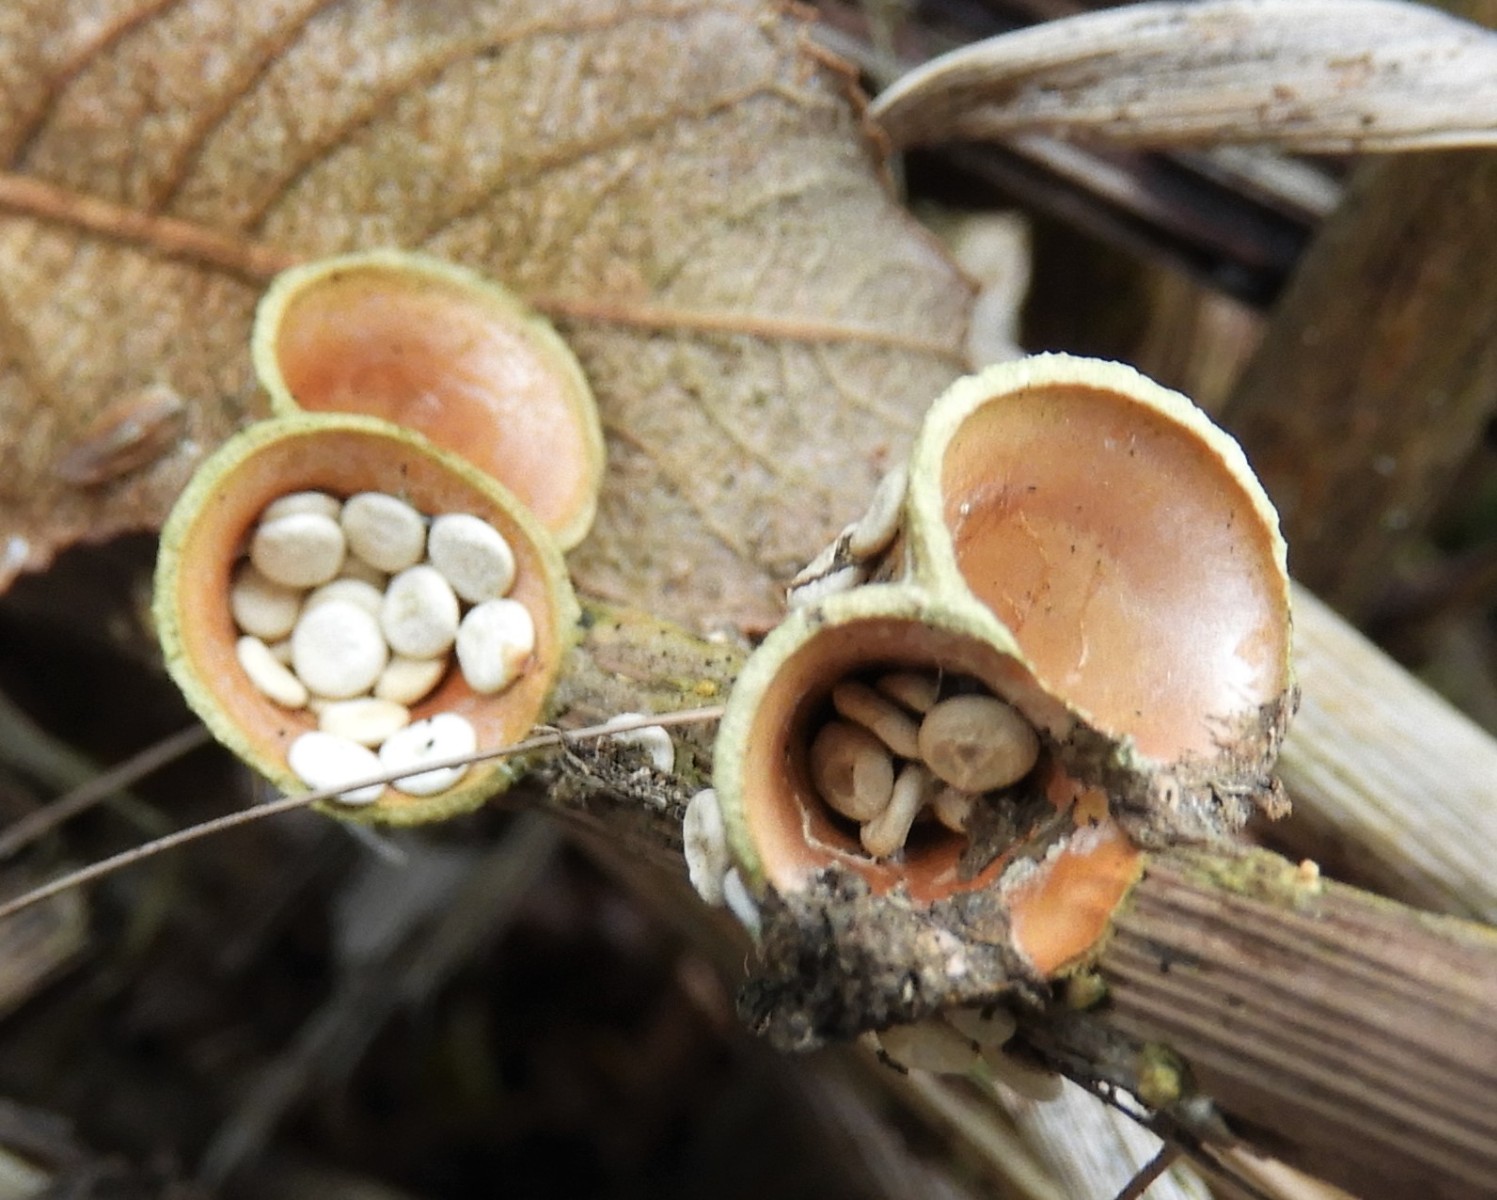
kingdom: Fungi
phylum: Basidiomycota
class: Agaricomycetes
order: Agaricales
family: Nidulariaceae
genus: Crucibulum
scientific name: Crucibulum crucibuliforme
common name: krukkesvamp
